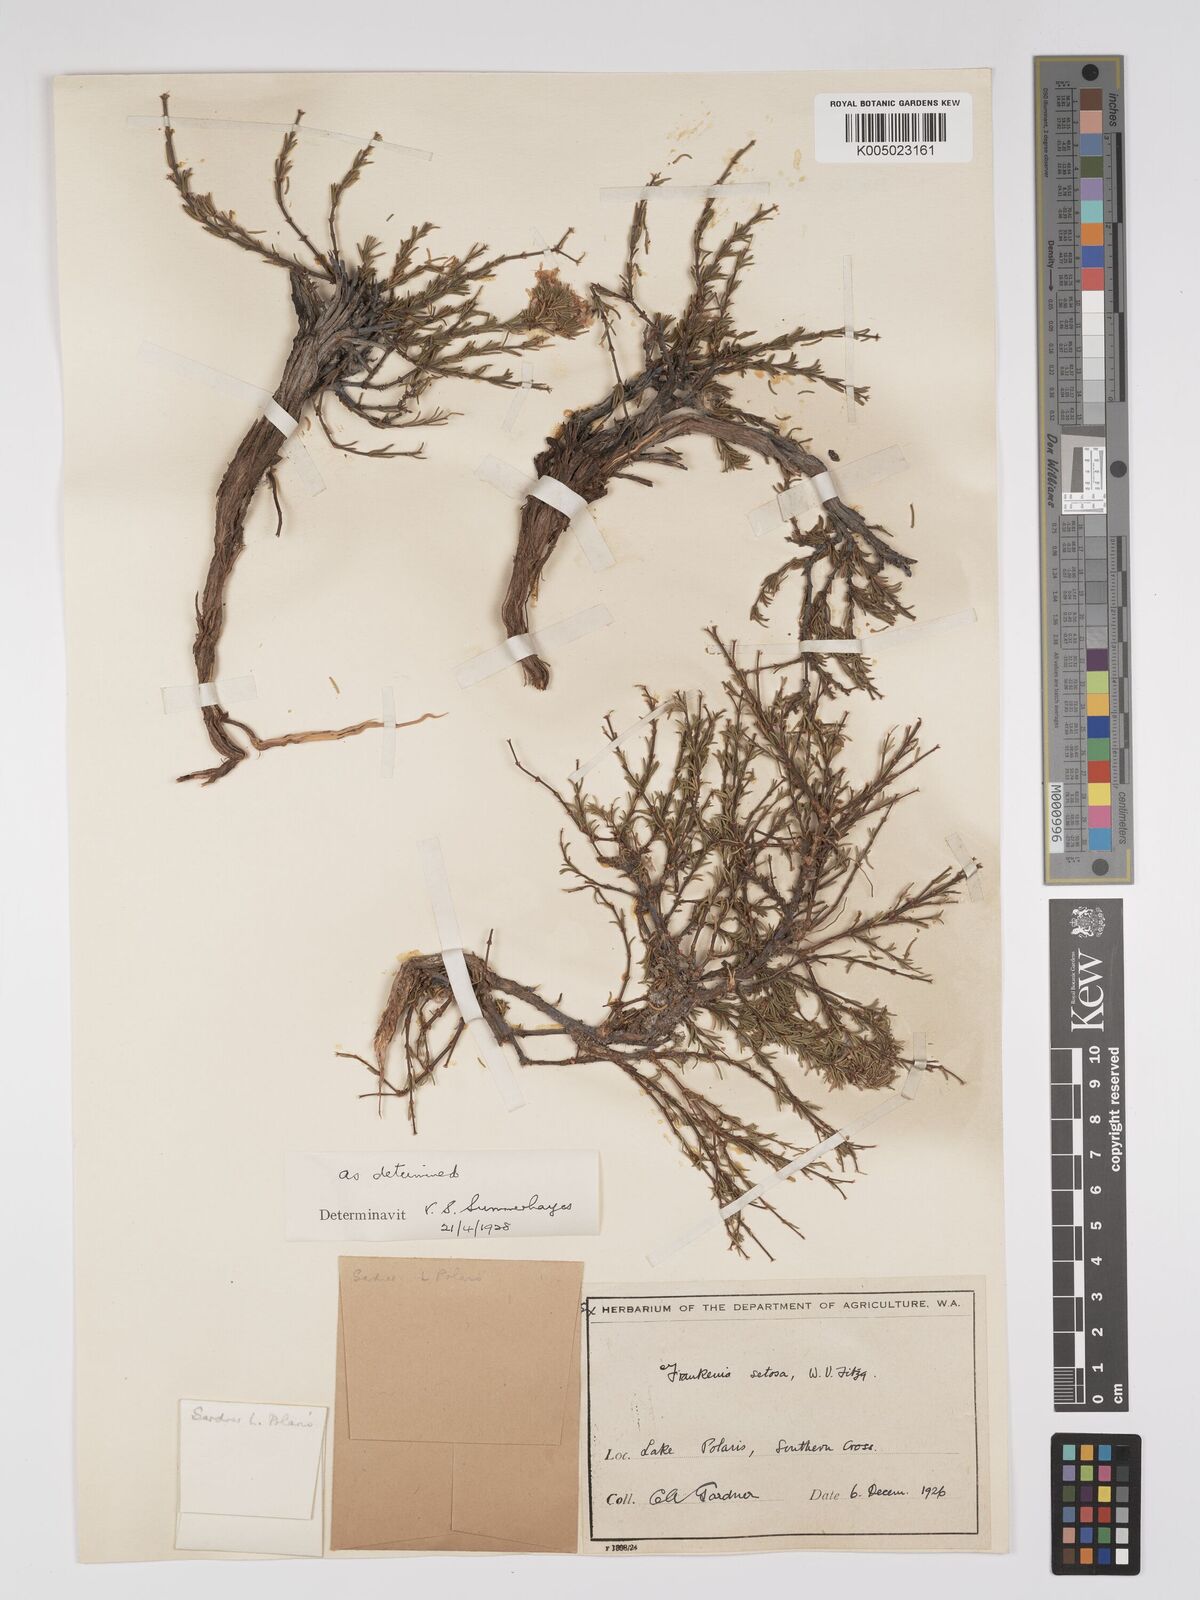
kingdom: Plantae
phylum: Tracheophyta
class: Magnoliopsida
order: Caryophyllales
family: Frankeniaceae
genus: Frankenia
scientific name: Frankenia setosa
